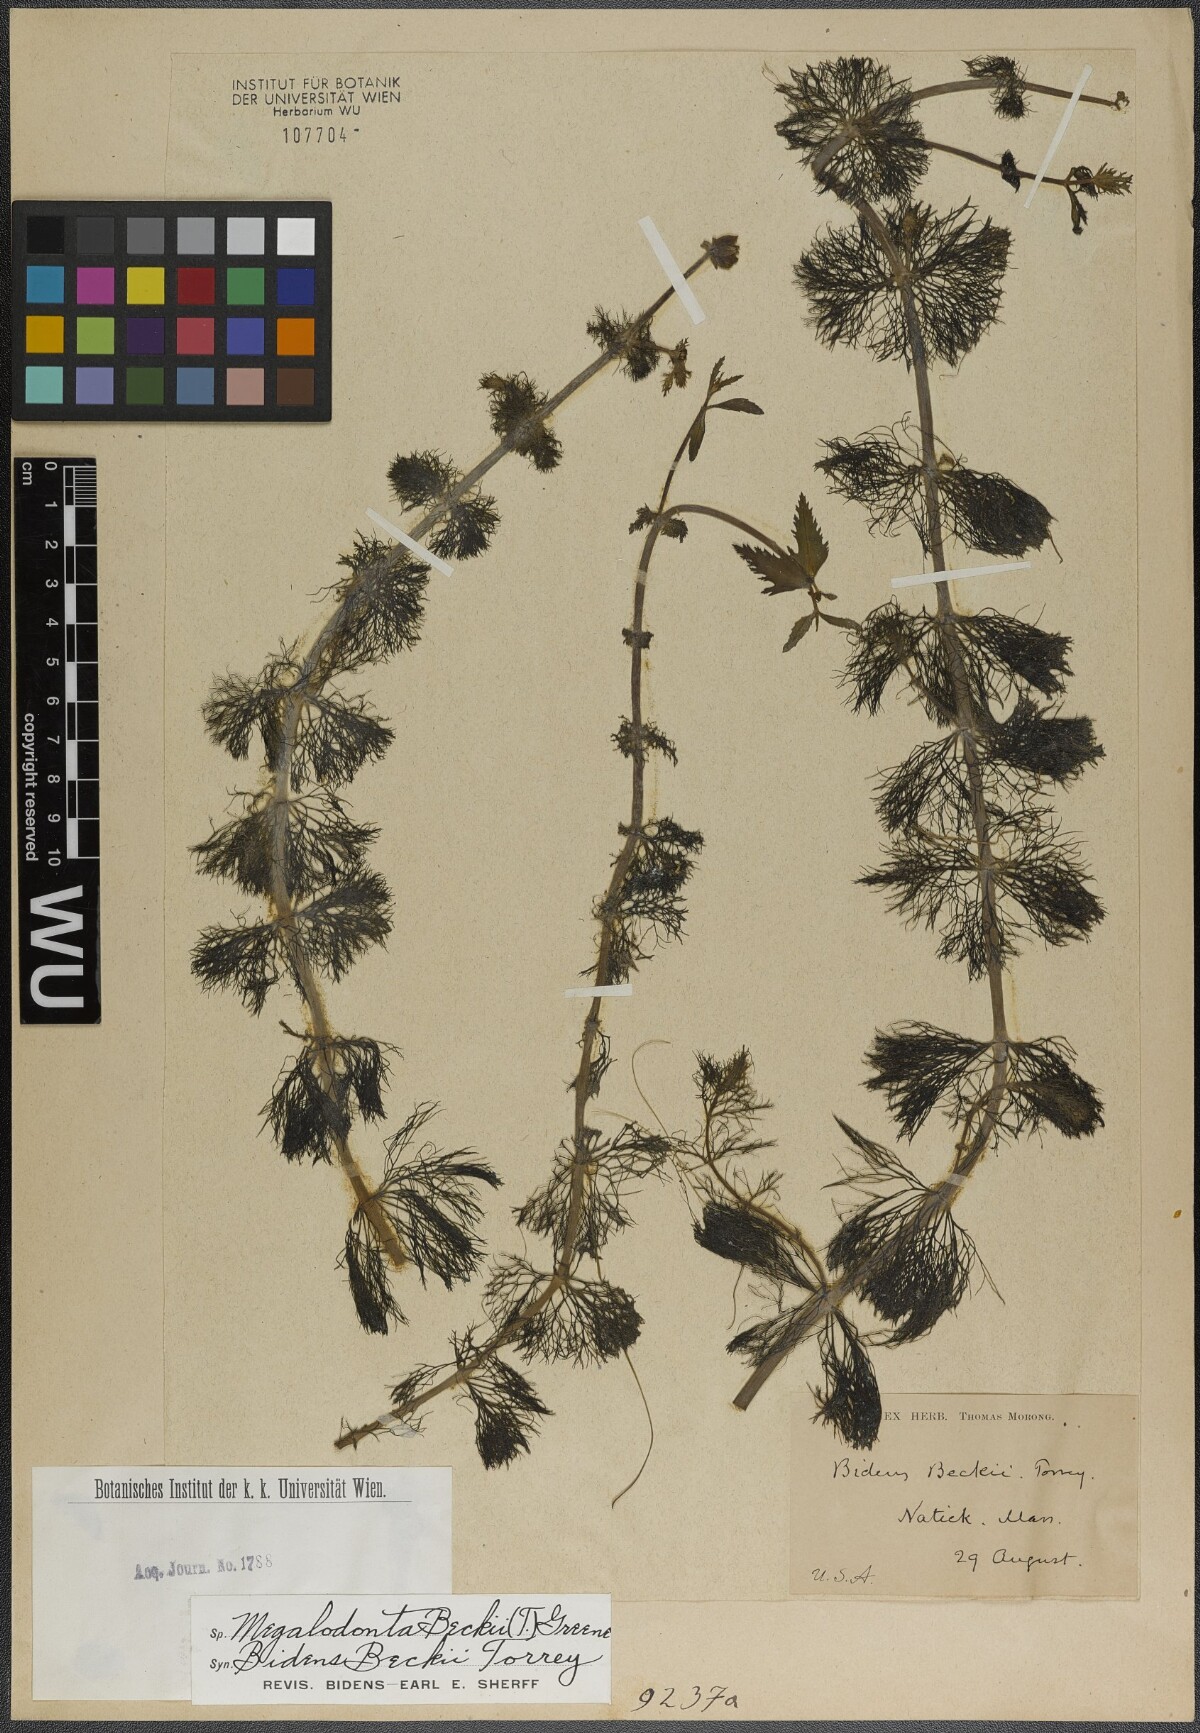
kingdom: Plantae
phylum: Tracheophyta
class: Magnoliopsida
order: Asterales
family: Asteraceae
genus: Bidens
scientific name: Bidens beckii
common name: Beck's beggarticks
